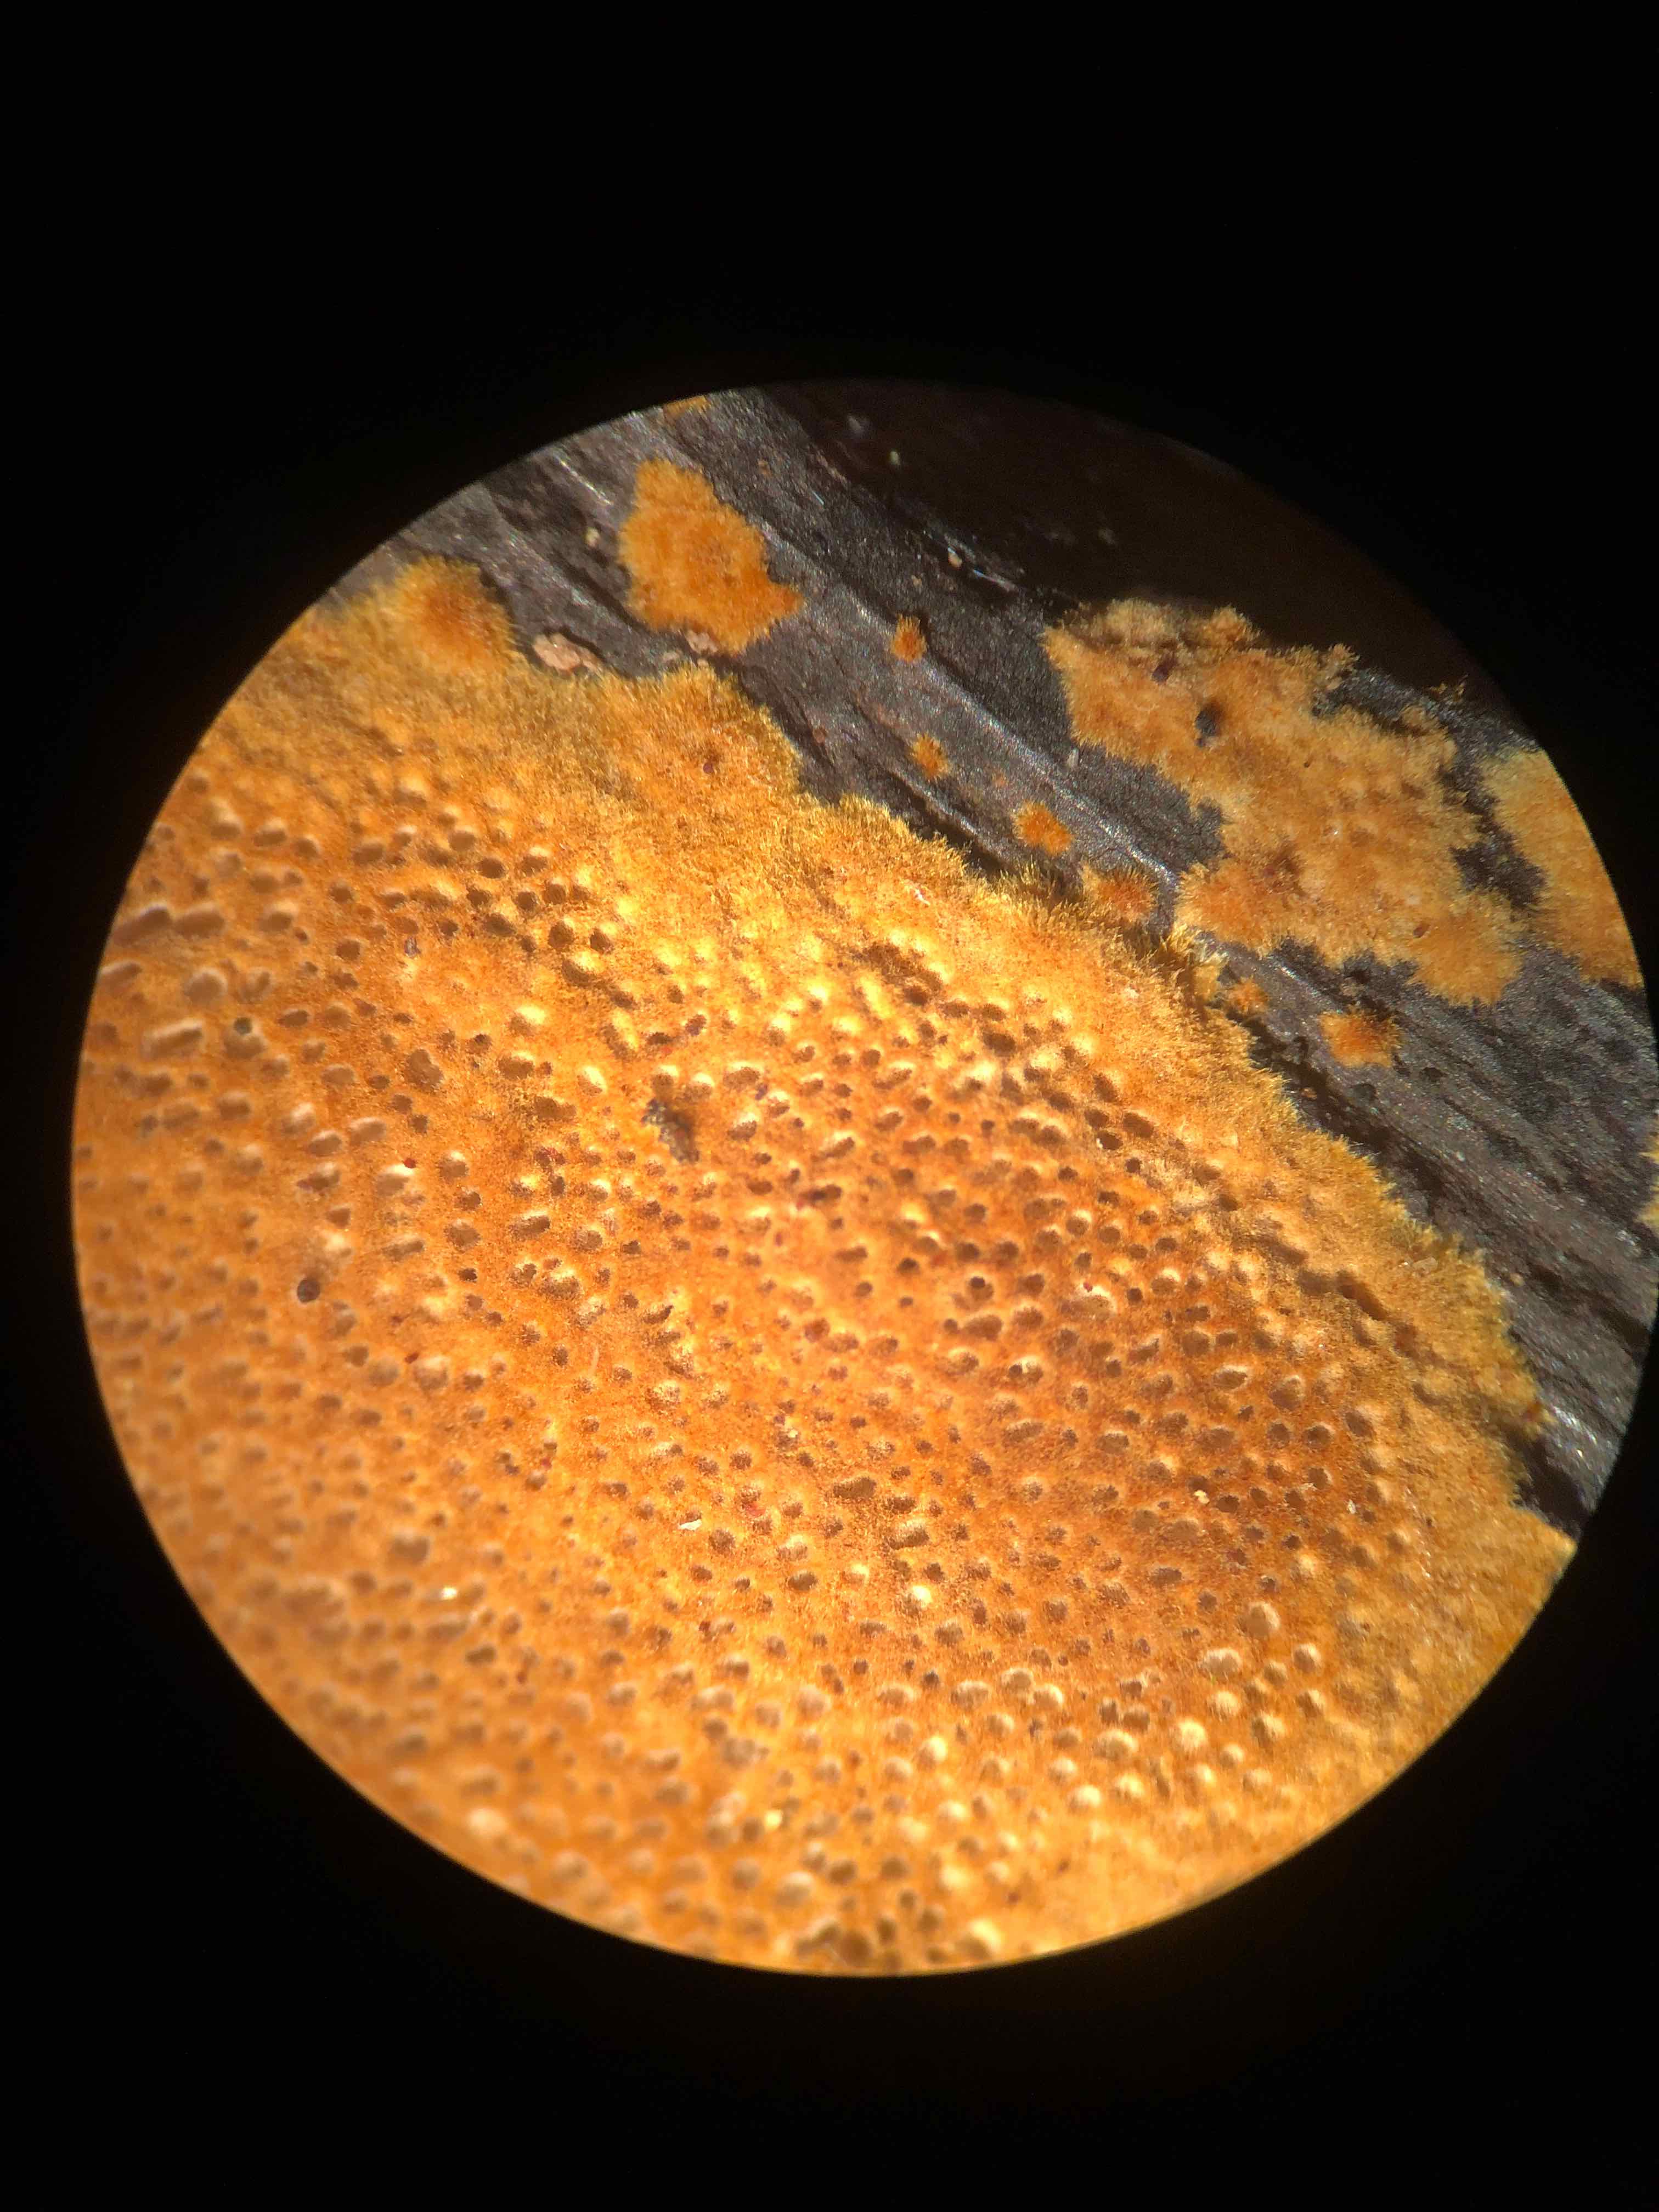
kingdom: Fungi
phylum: Basidiomycota
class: Agaricomycetes
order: Hymenochaetales
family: Hymenochaetaceae
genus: Fuscoporia
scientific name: Fuscoporia ferrea
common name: skorpe-ildporesvamp
